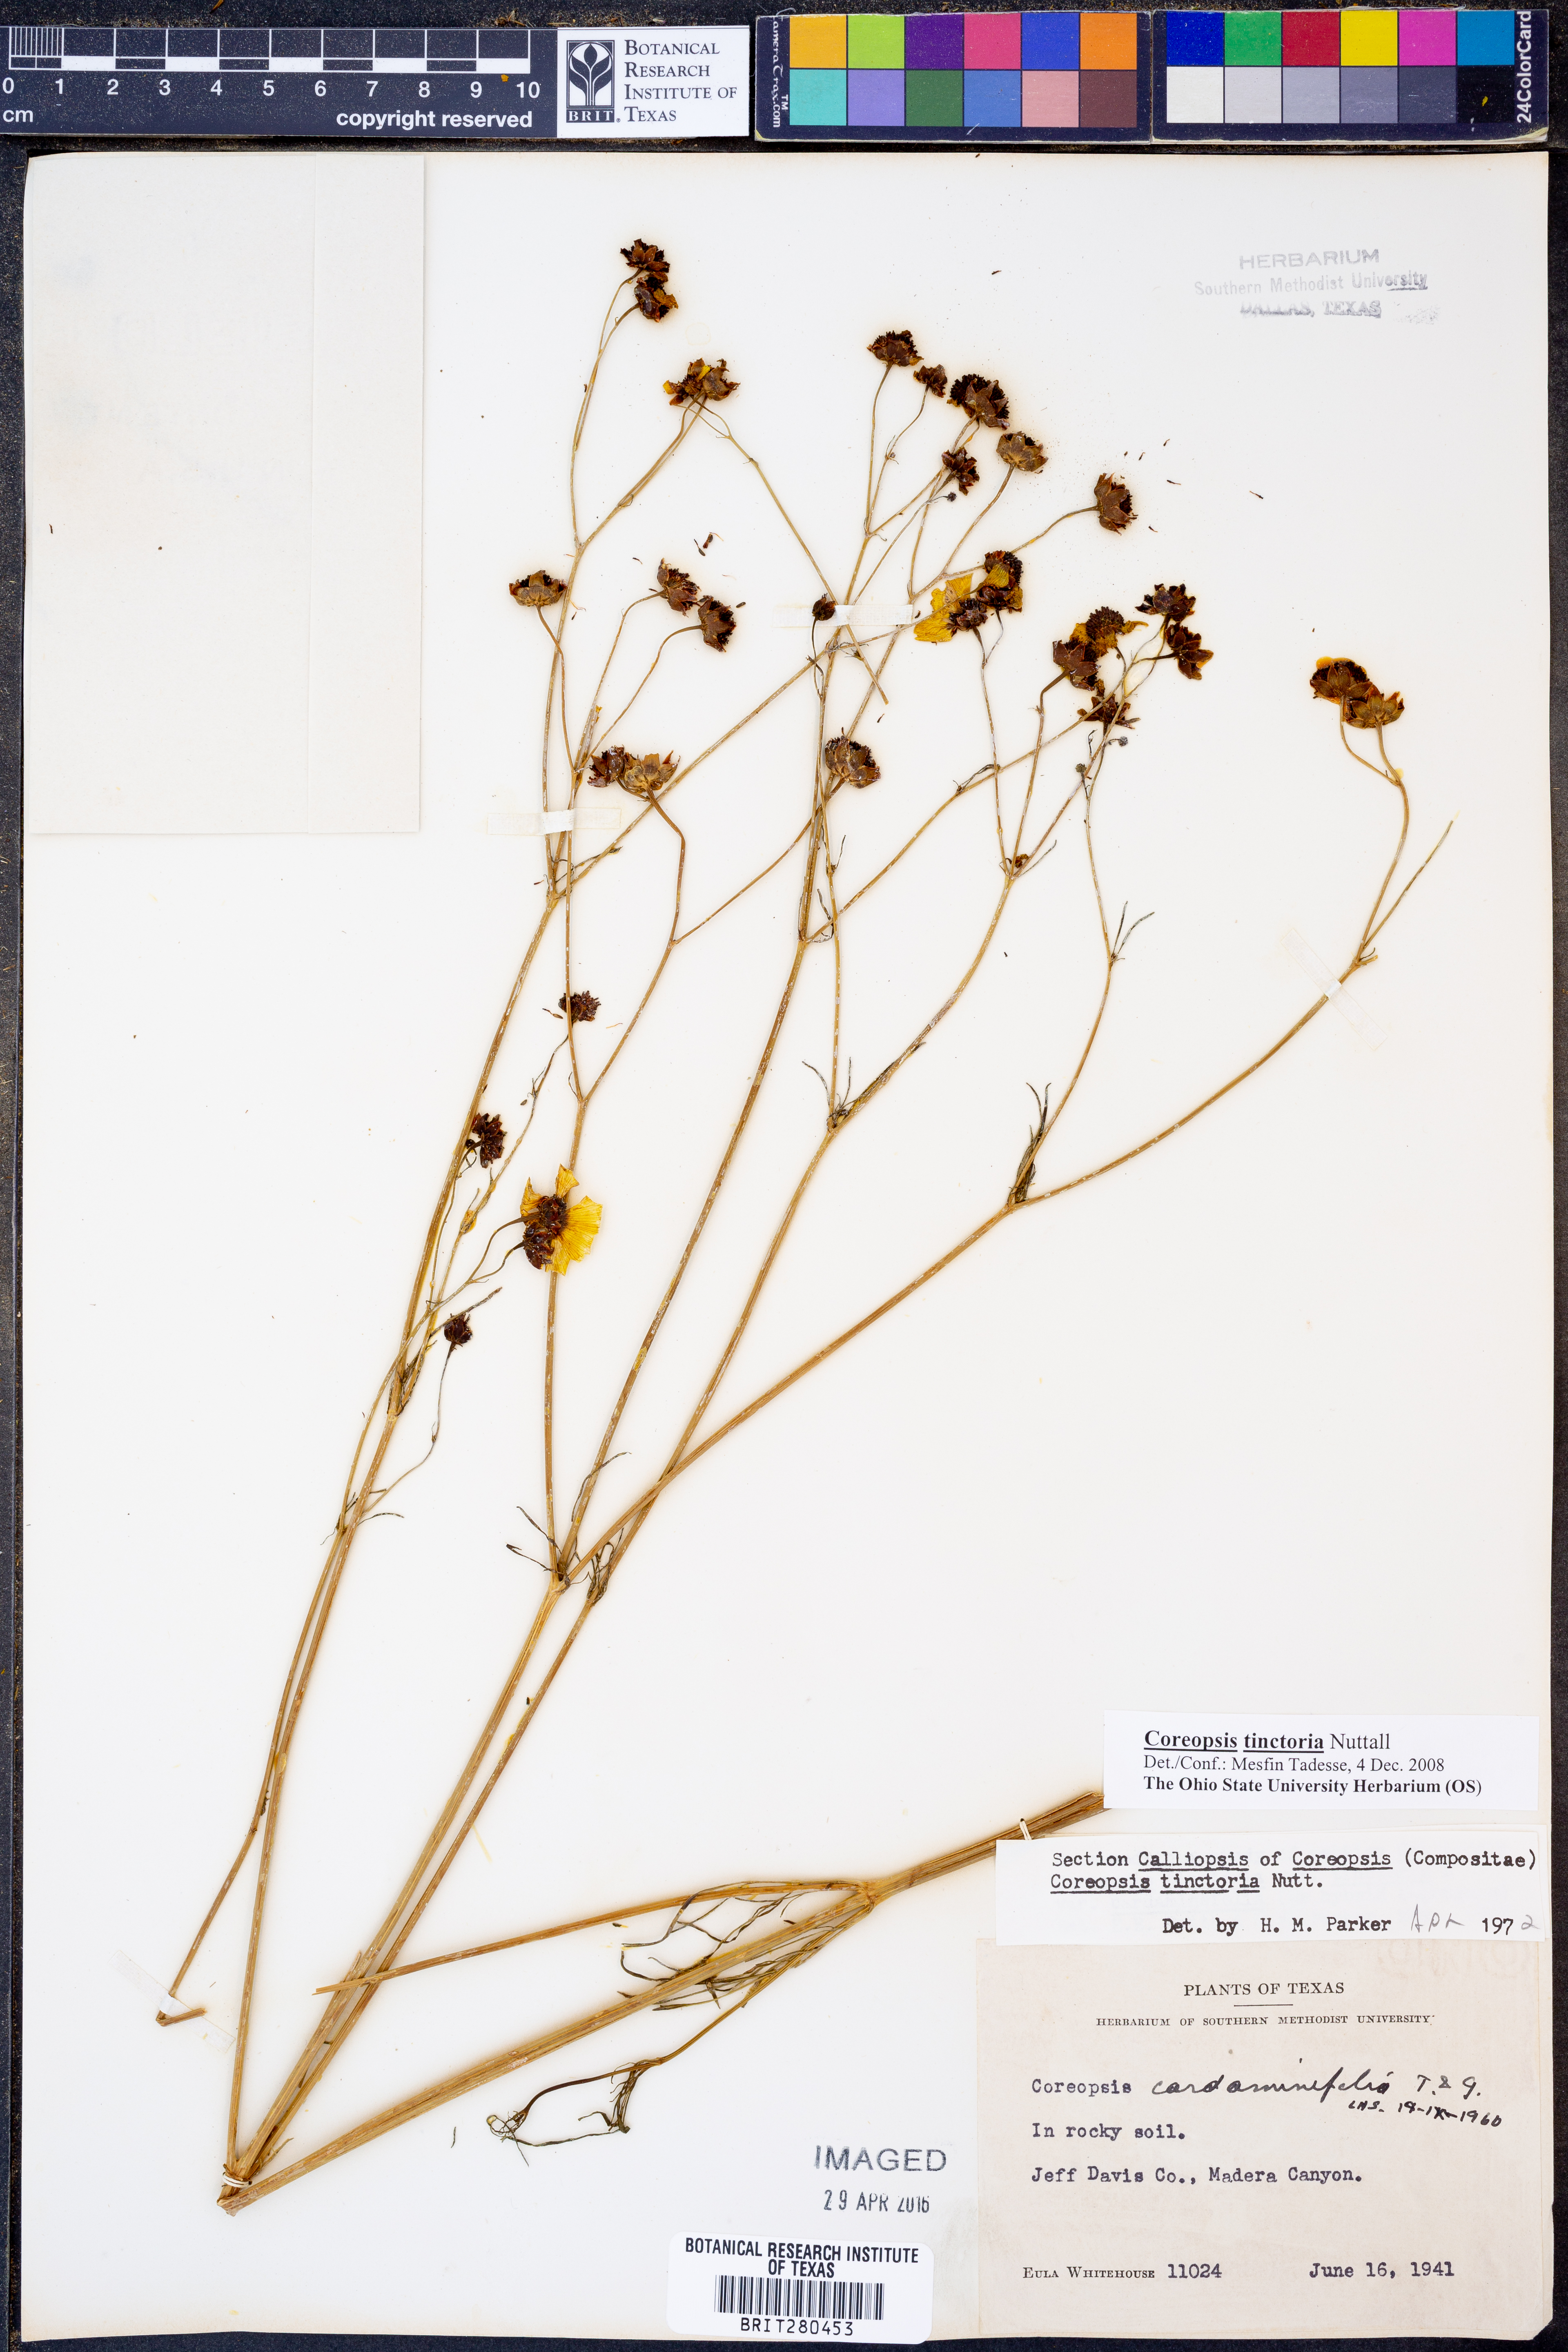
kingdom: Plantae
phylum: Tracheophyta
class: Magnoliopsida
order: Asterales
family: Asteraceae
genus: Coreopsis
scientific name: Coreopsis tinctoria
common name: Garden tickseed
